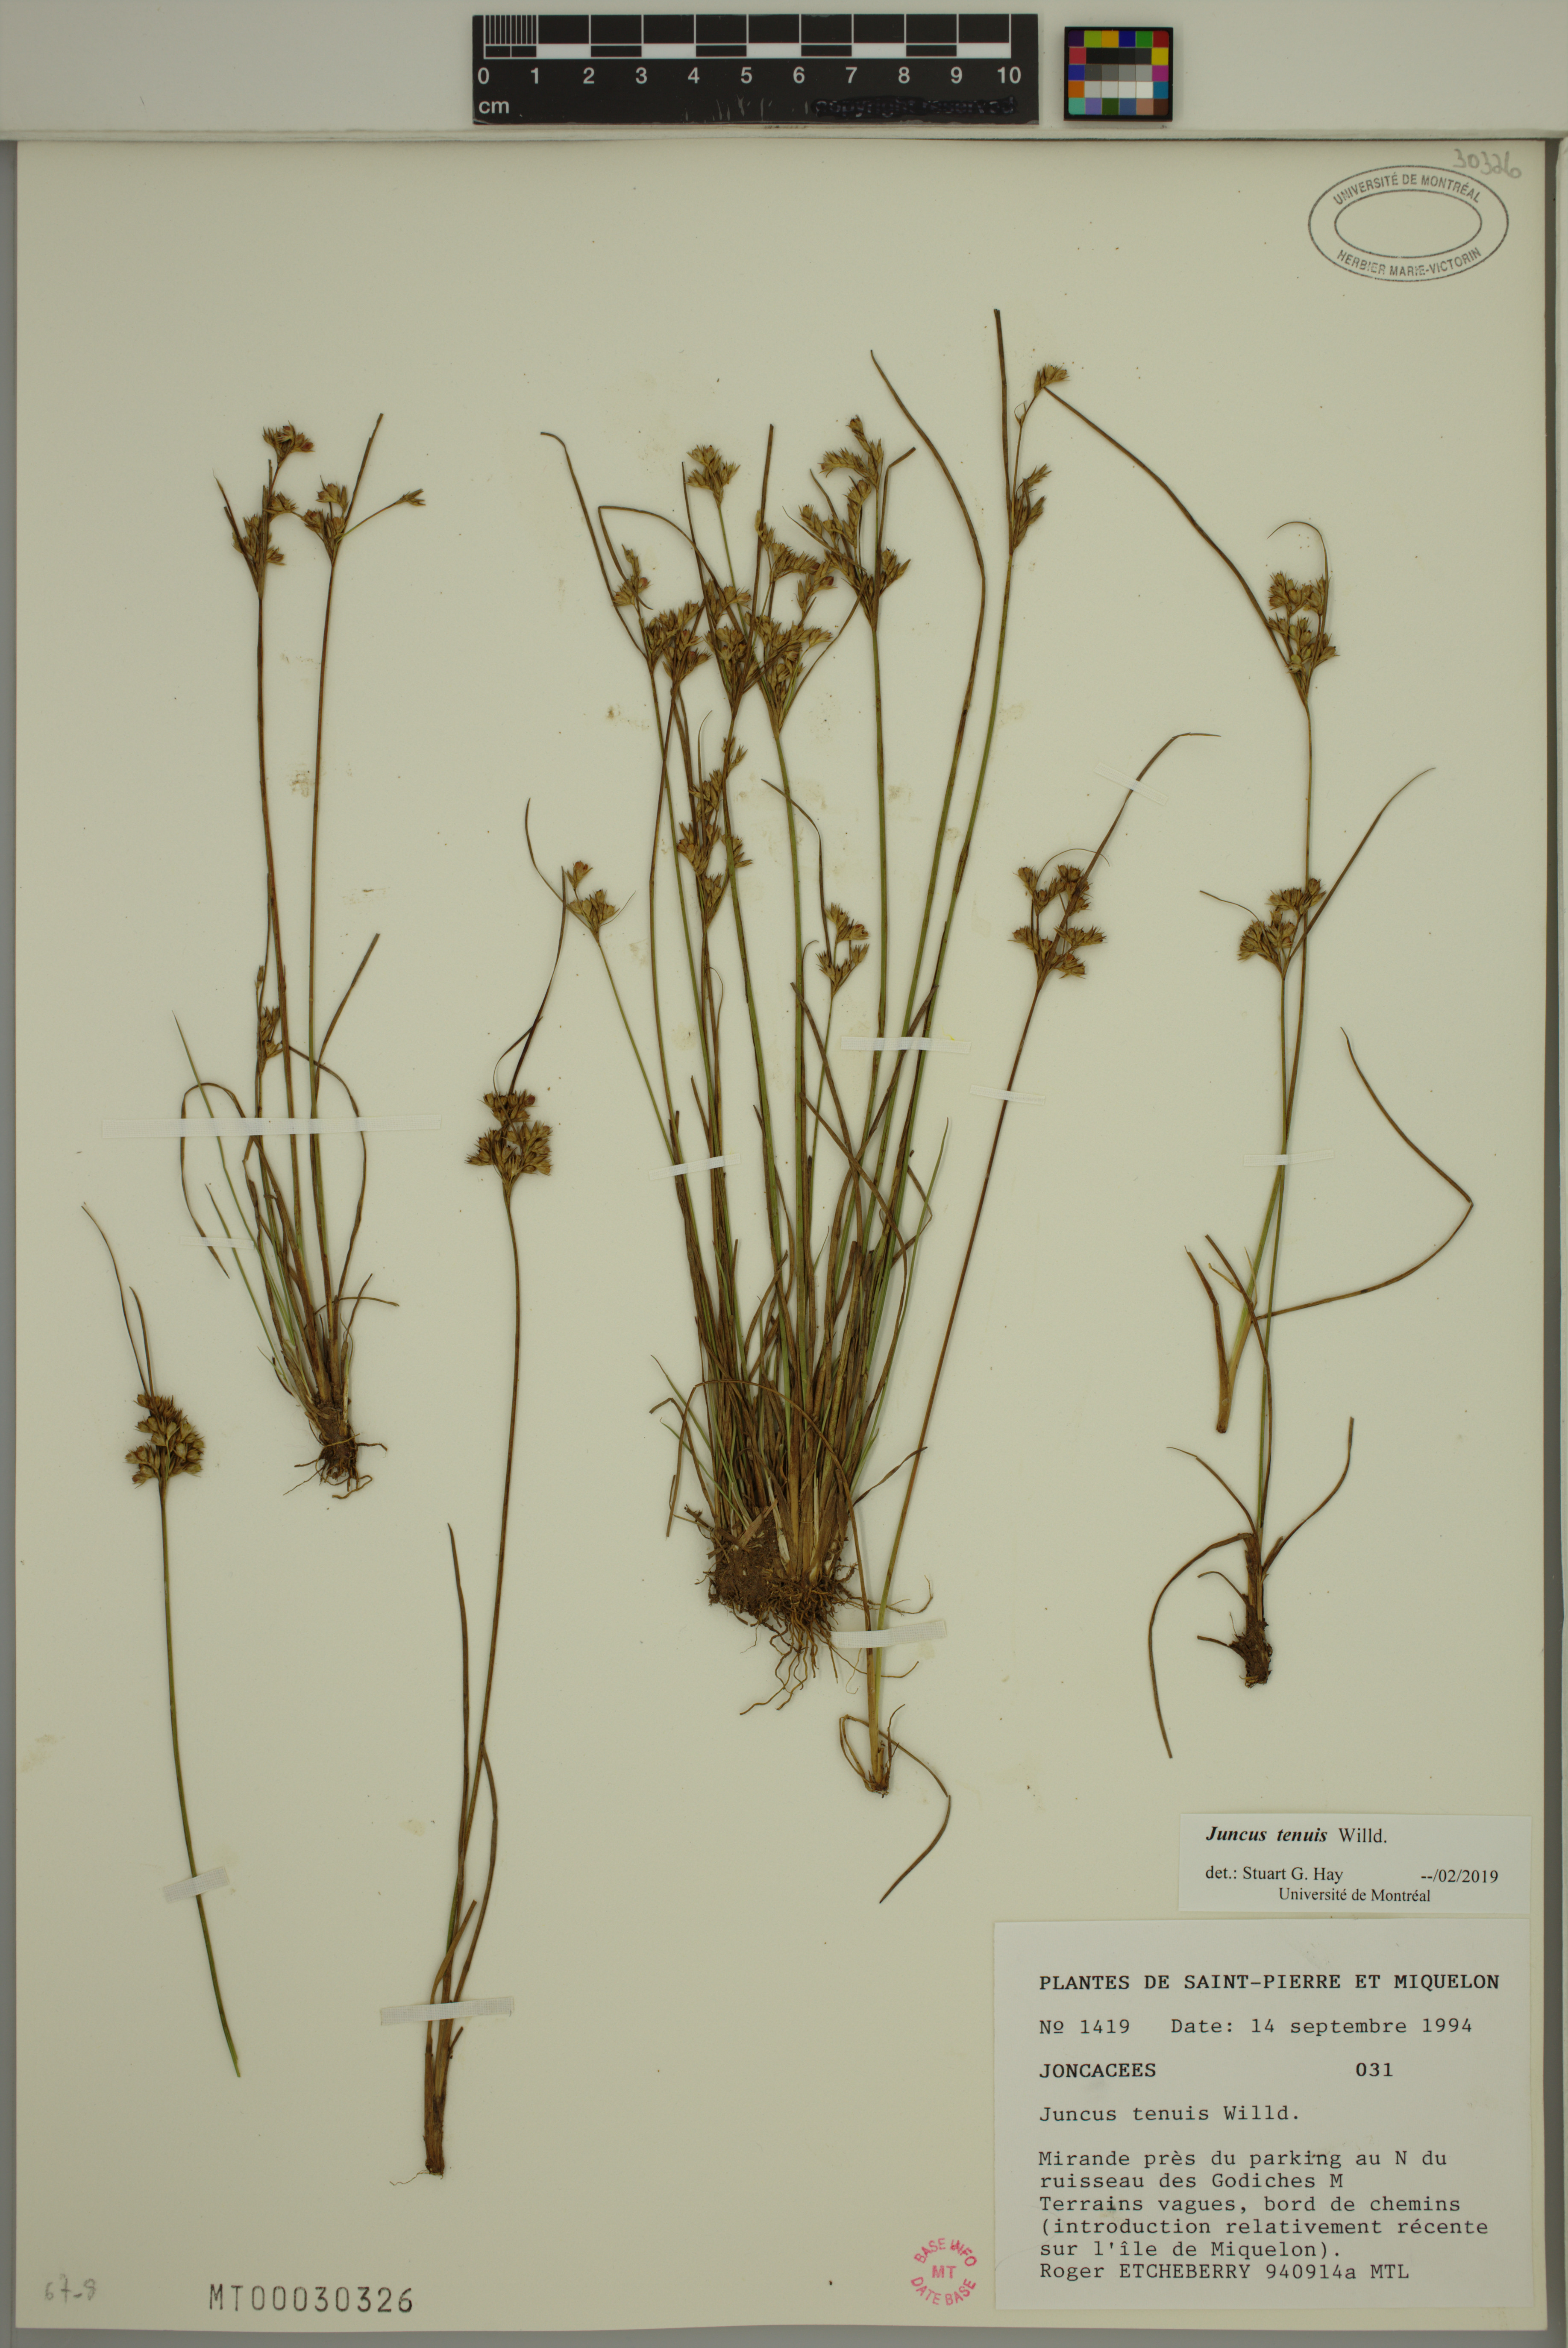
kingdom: Plantae
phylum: Tracheophyta
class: Liliopsida
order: Poales
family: Juncaceae
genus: Juncus
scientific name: Juncus tenuis
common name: Slender rush
